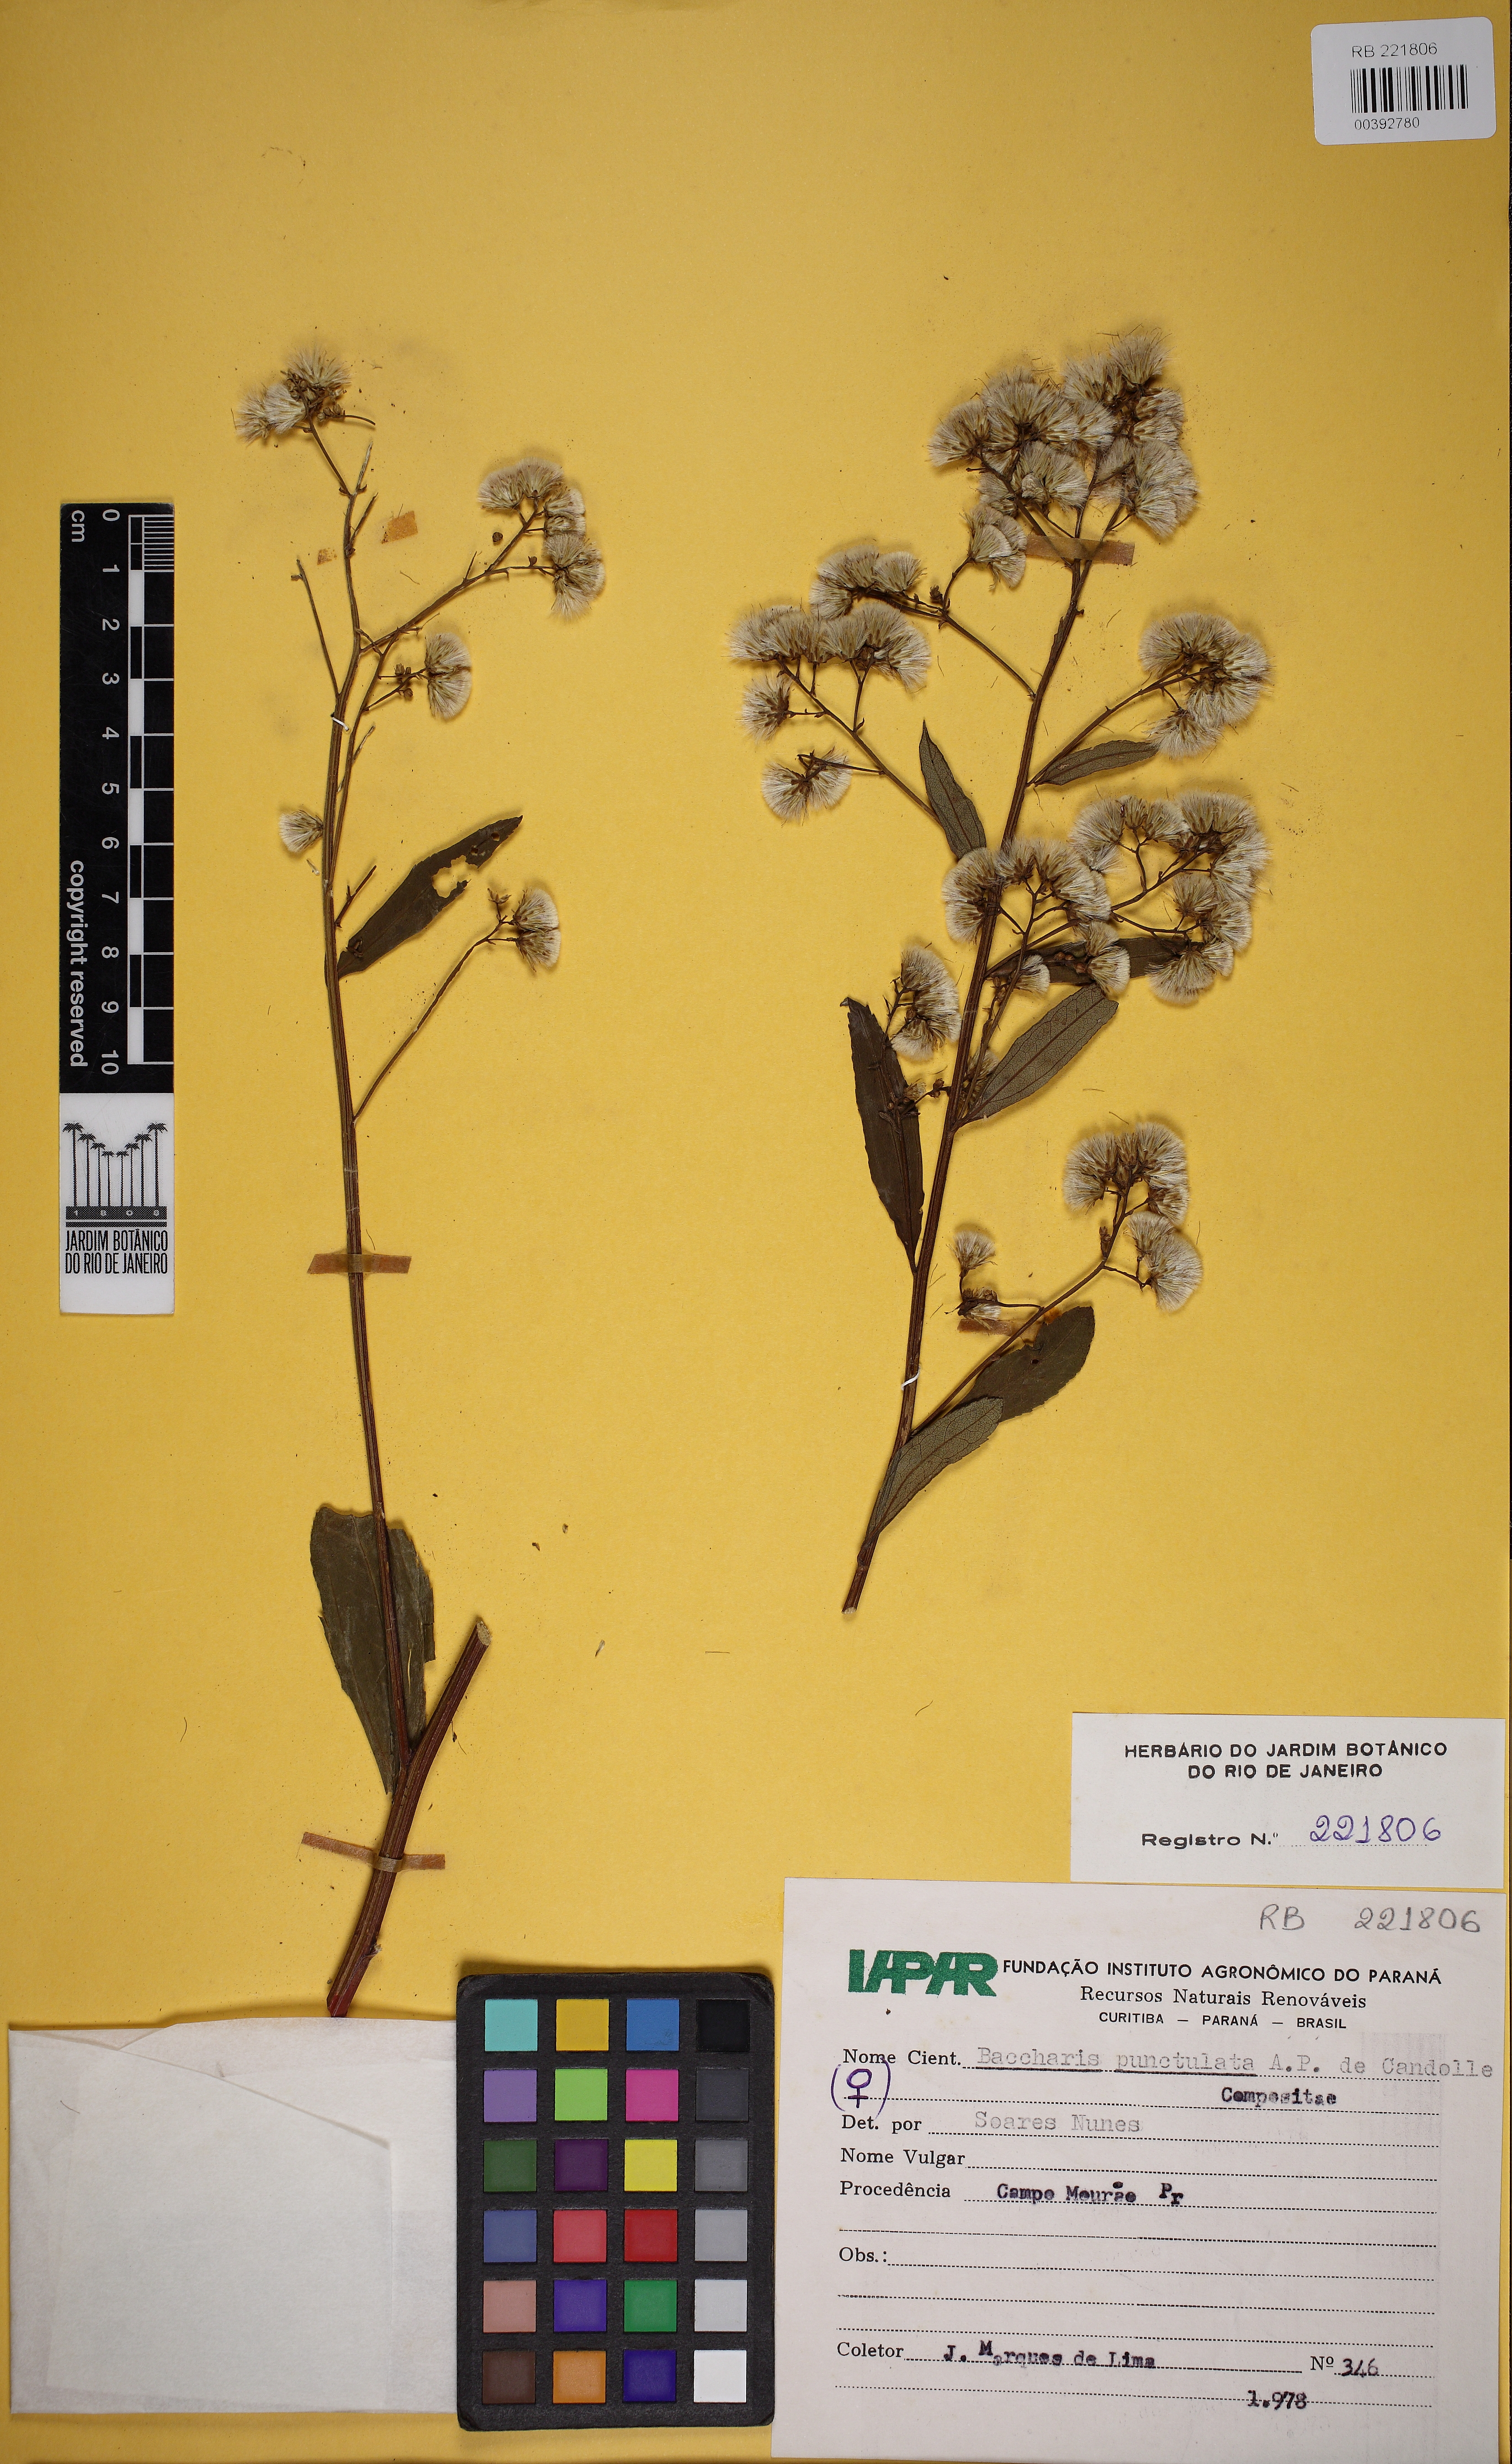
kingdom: Plantae
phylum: Tracheophyta
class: Magnoliopsida
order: Asterales
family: Asteraceae
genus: Baccharis
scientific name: Baccharis punctulata
